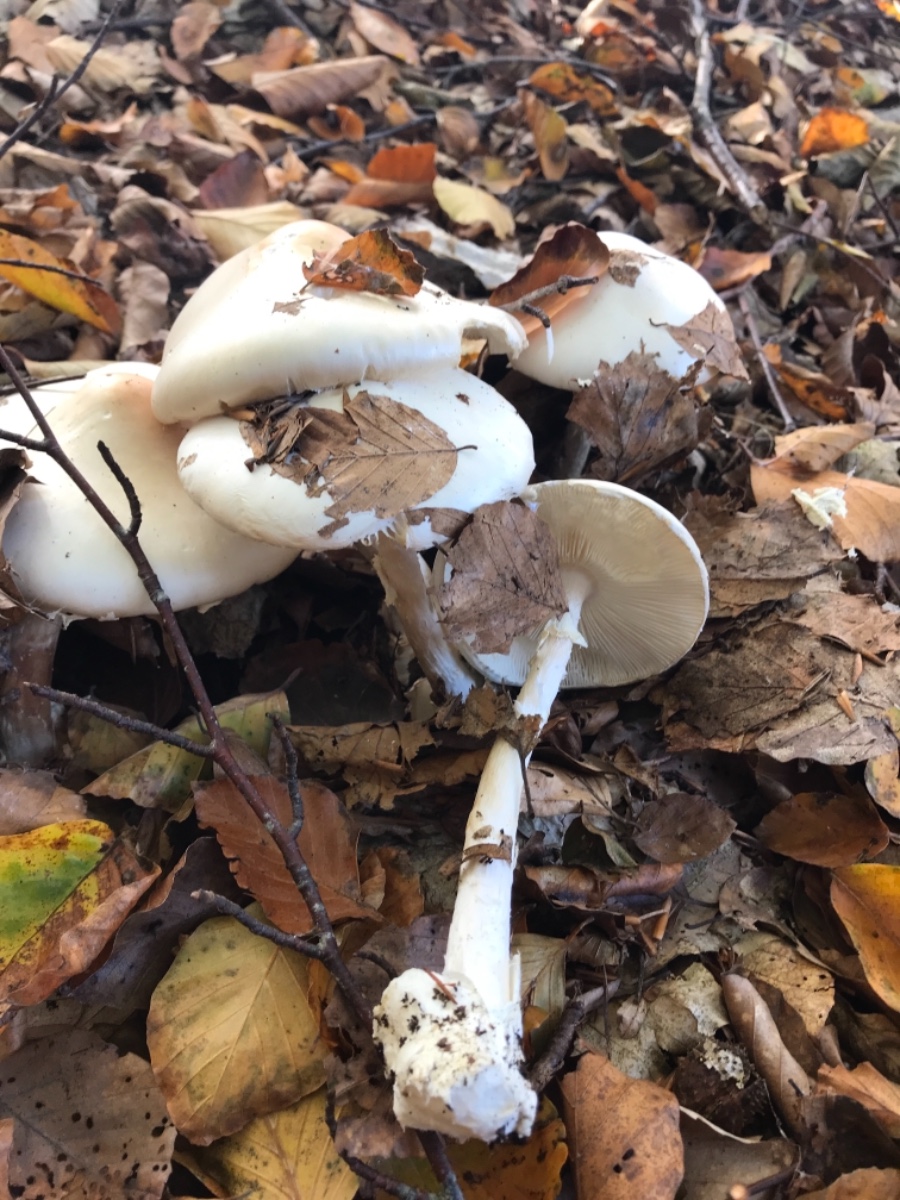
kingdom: Fungi
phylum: Basidiomycota
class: Agaricomycetes
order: Agaricales
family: Amanitaceae
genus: Amanita
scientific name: Amanita virosa
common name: snehvid fluesvamp
